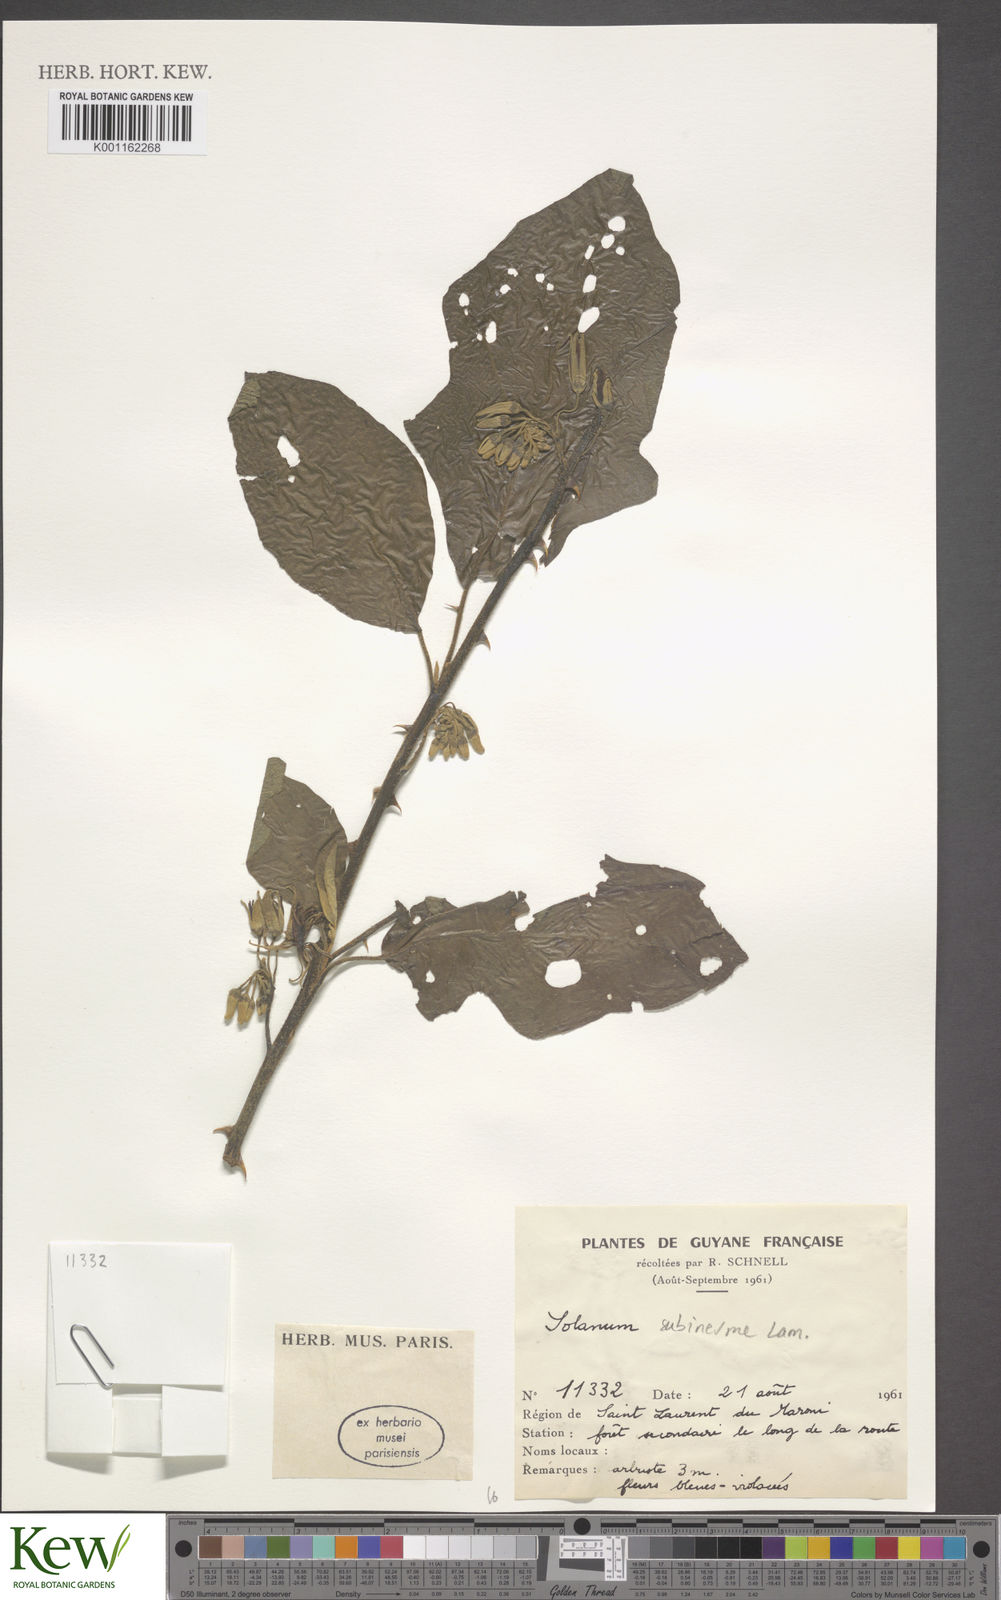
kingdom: Plantae
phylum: Tracheophyta
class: Magnoliopsida
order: Solanales
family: Solanaceae
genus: Solanum
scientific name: Solanum subinerme
